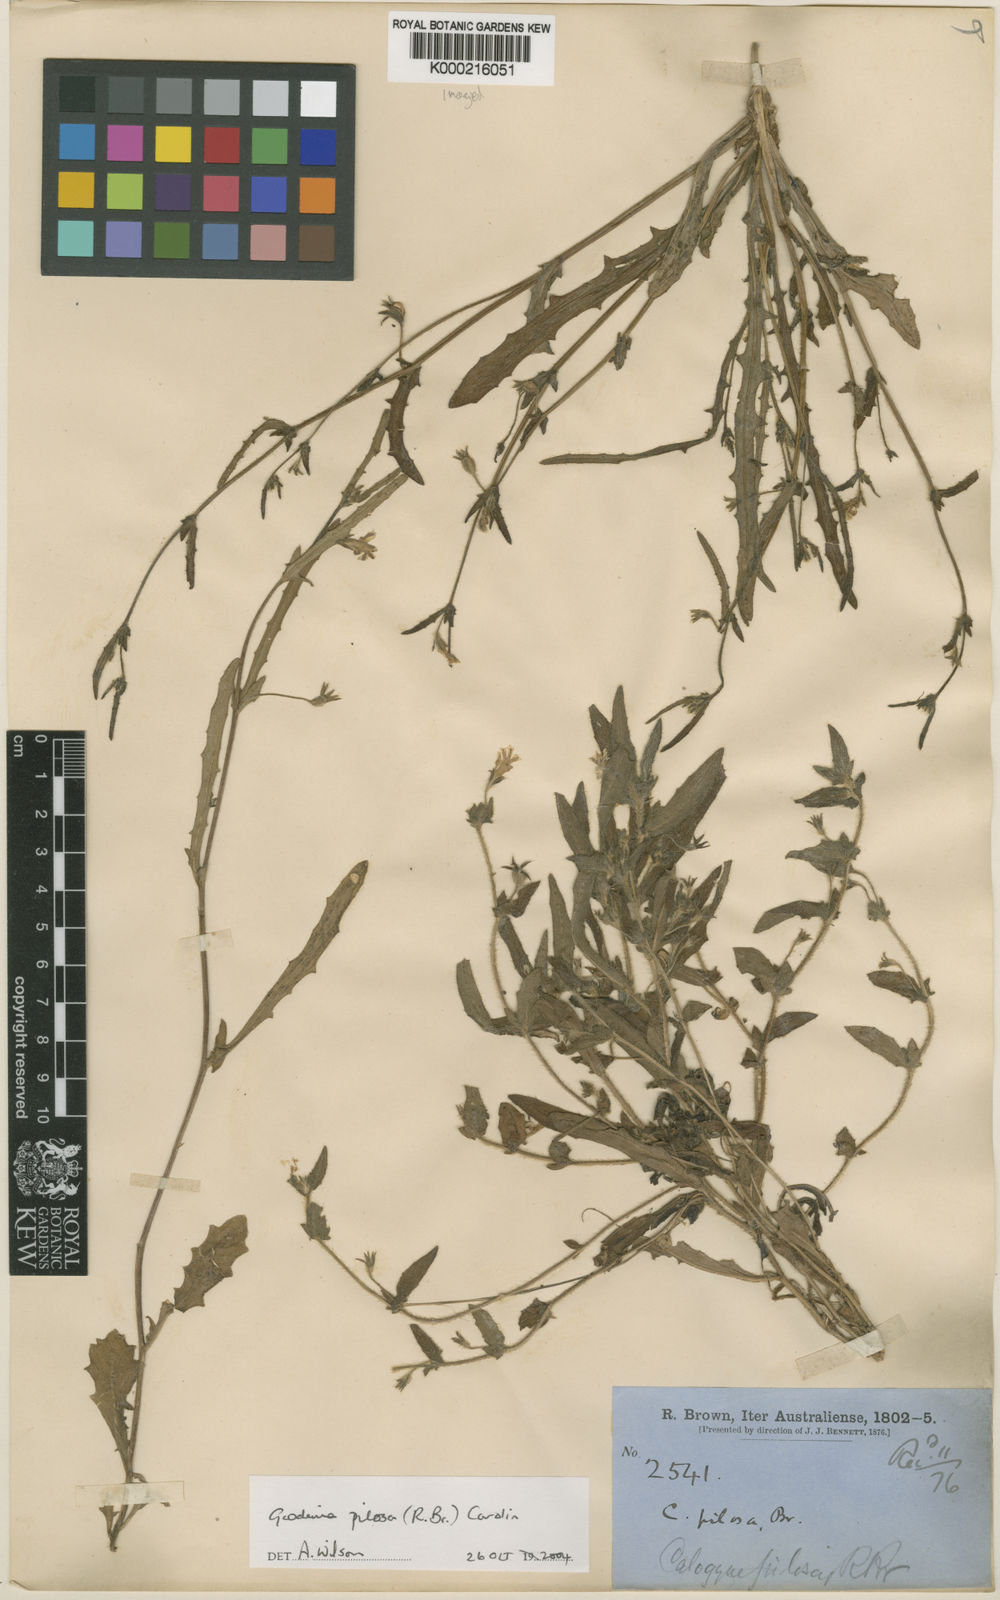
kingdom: Plantae
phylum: Tracheophyta
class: Magnoliopsida
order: Asterales
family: Goodeniaceae
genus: Goodenia
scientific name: Goodenia pilosa
